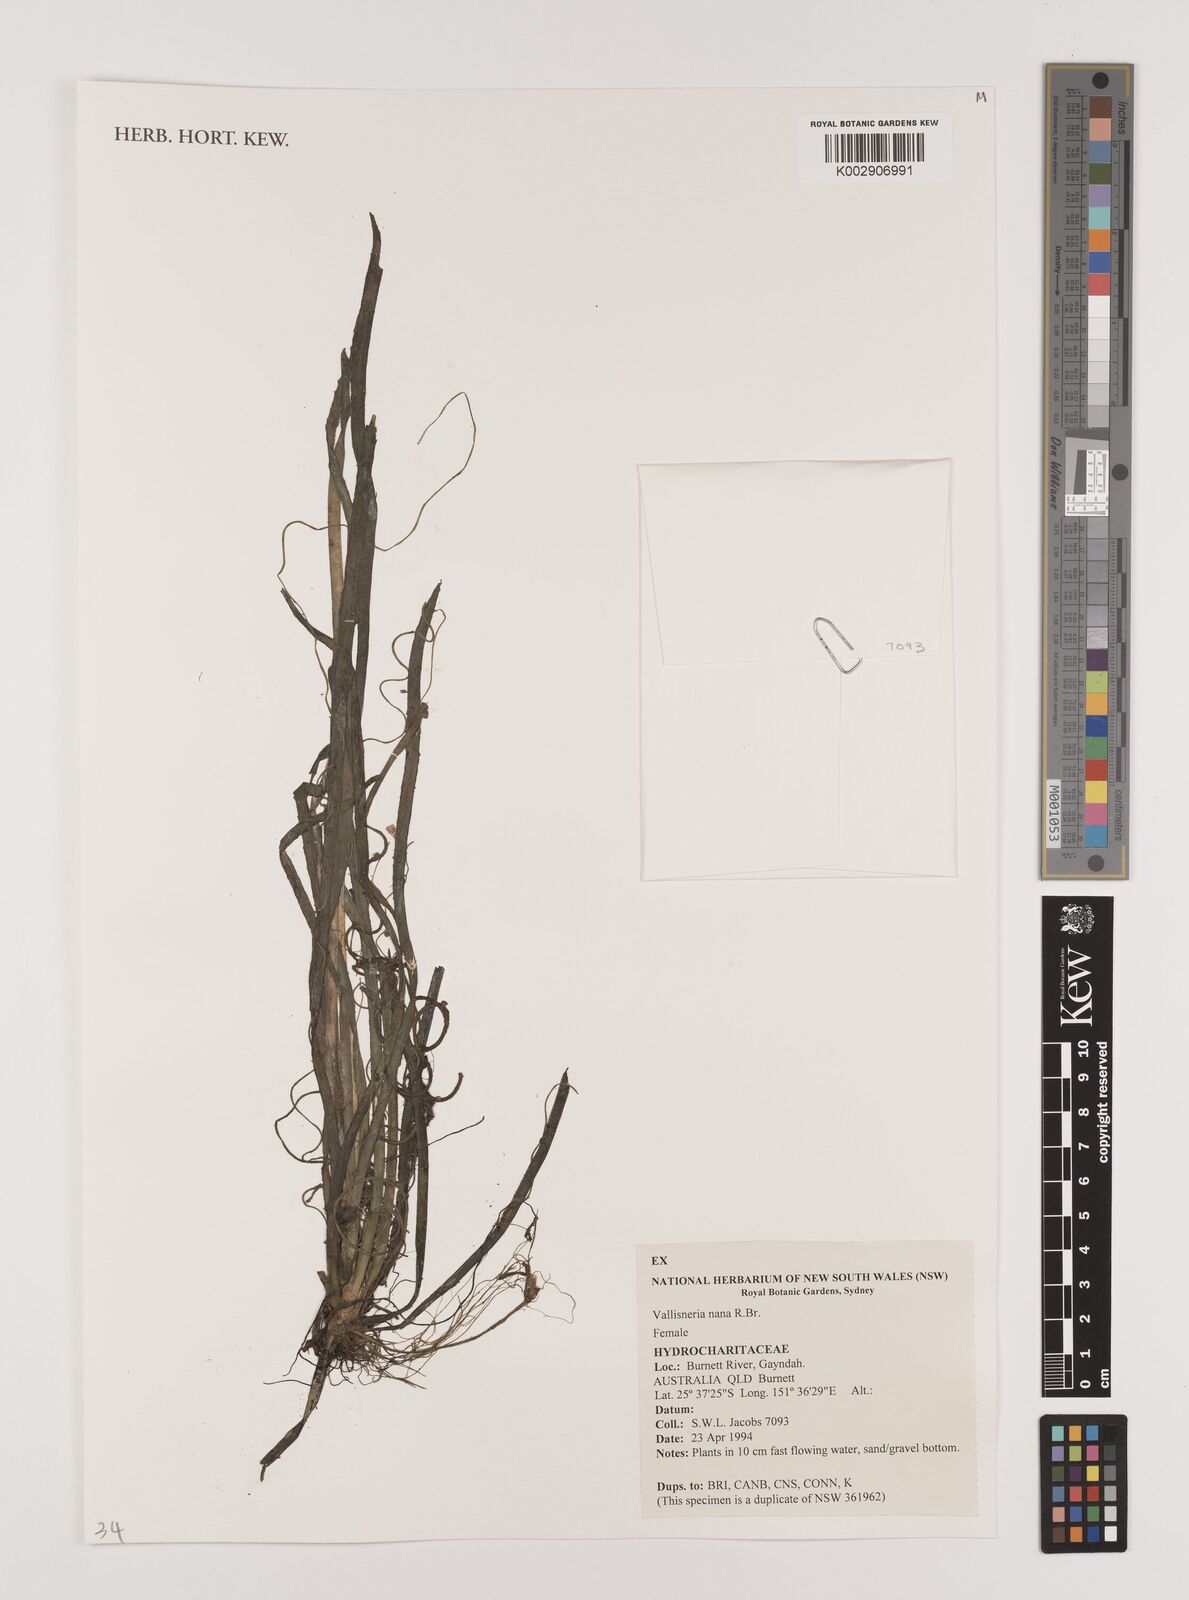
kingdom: Plantae
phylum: Tracheophyta
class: Liliopsida
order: Alismatales
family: Hydrocharitaceae
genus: Vallisneria
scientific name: Vallisneria nana
